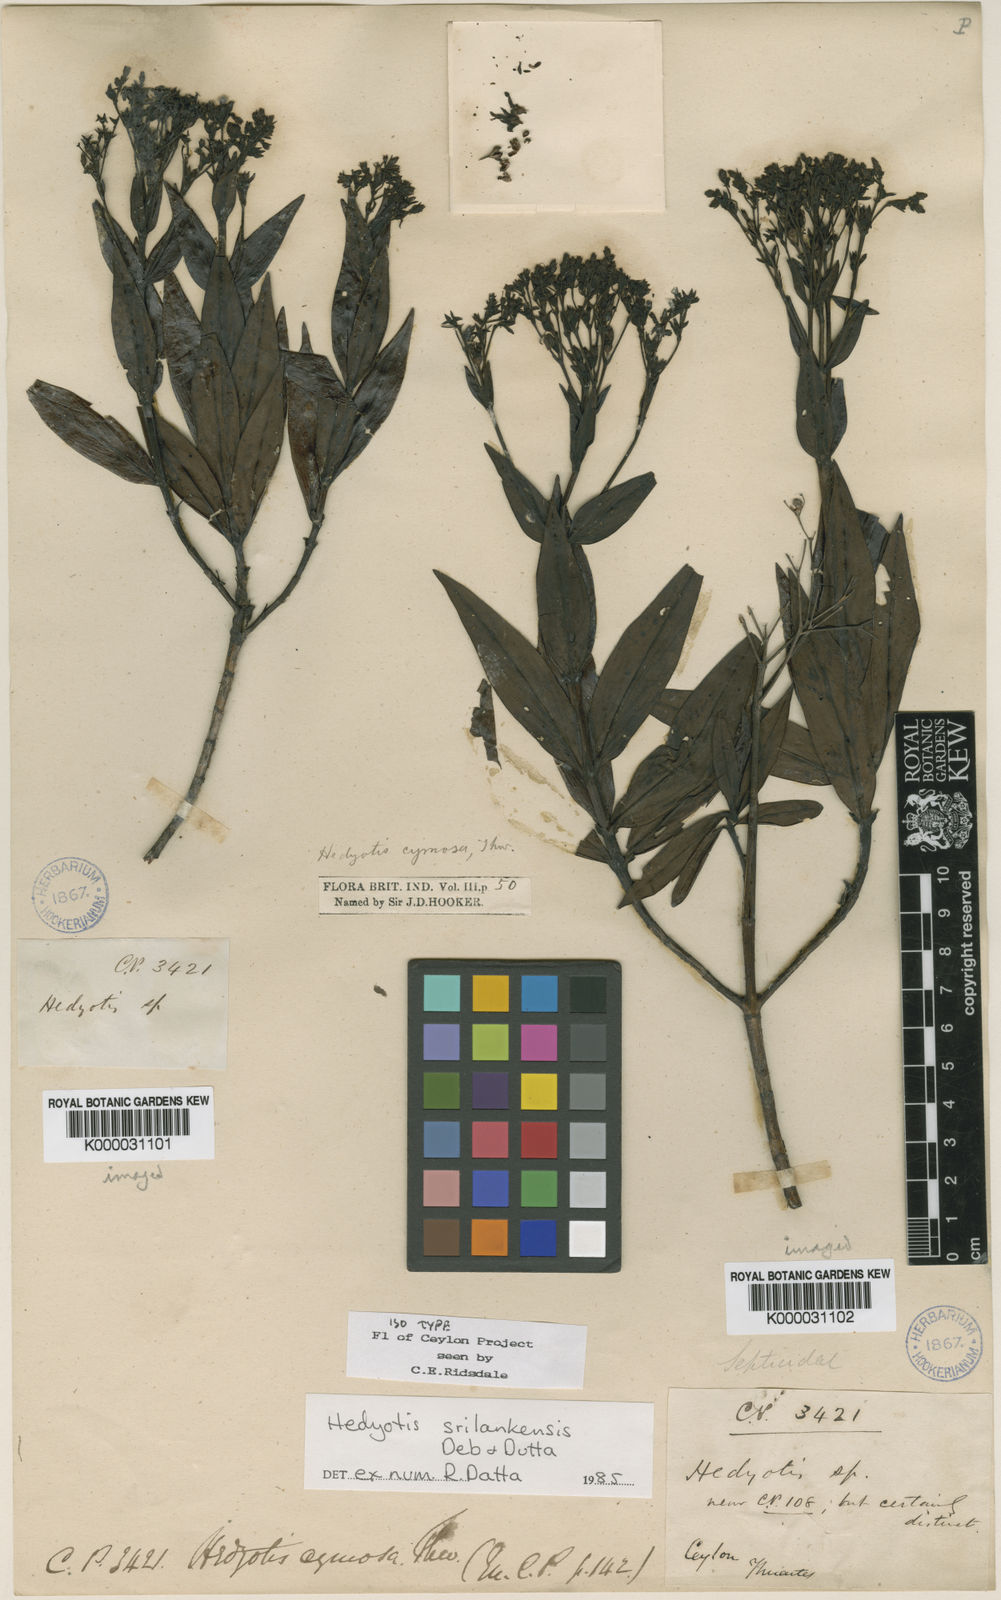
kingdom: Plantae
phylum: Tracheophyta
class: Magnoliopsida
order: Gentianales
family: Rubiaceae
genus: Hedyotis
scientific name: Hedyotis srilankensis
